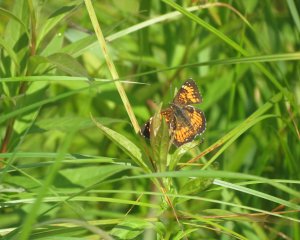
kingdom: Animalia
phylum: Arthropoda
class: Insecta
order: Lepidoptera
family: Nymphalidae
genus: Chlosyne
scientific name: Chlosyne harrisii
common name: Harris's Checkerspot
